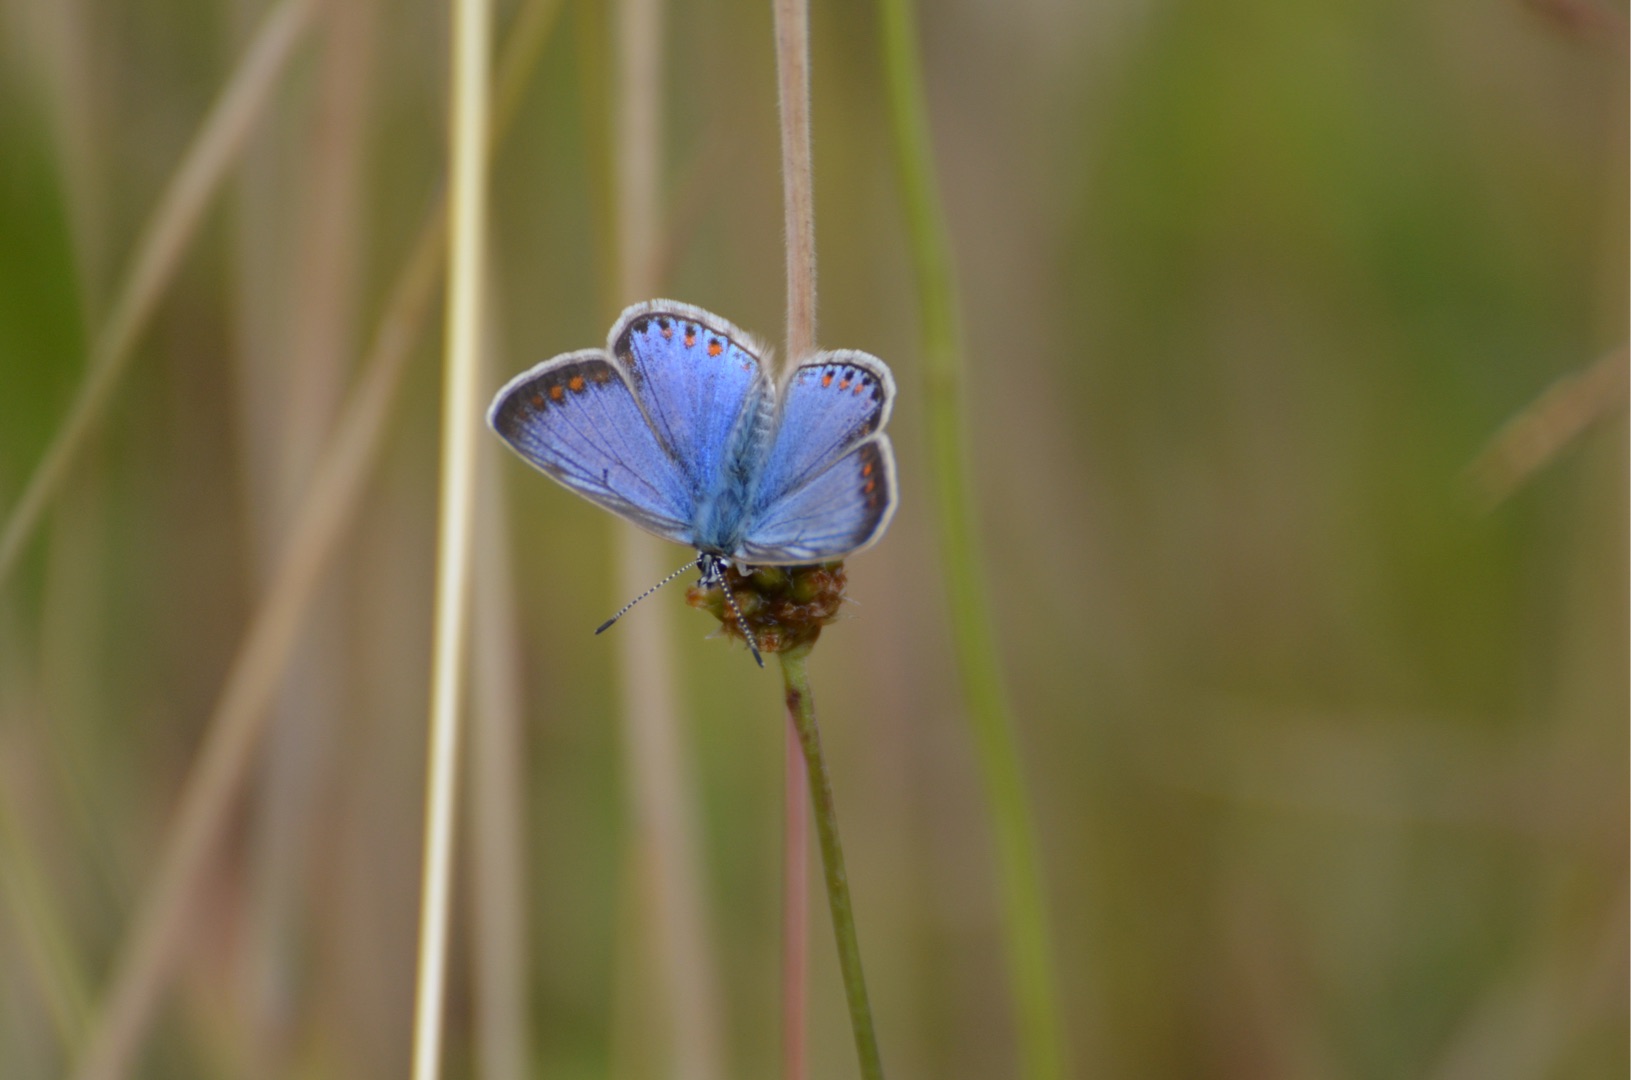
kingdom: Animalia
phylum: Arthropoda
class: Insecta
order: Lepidoptera
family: Lycaenidae
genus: Polyommatus
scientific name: Polyommatus icarus
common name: Almindelig blåfugl
